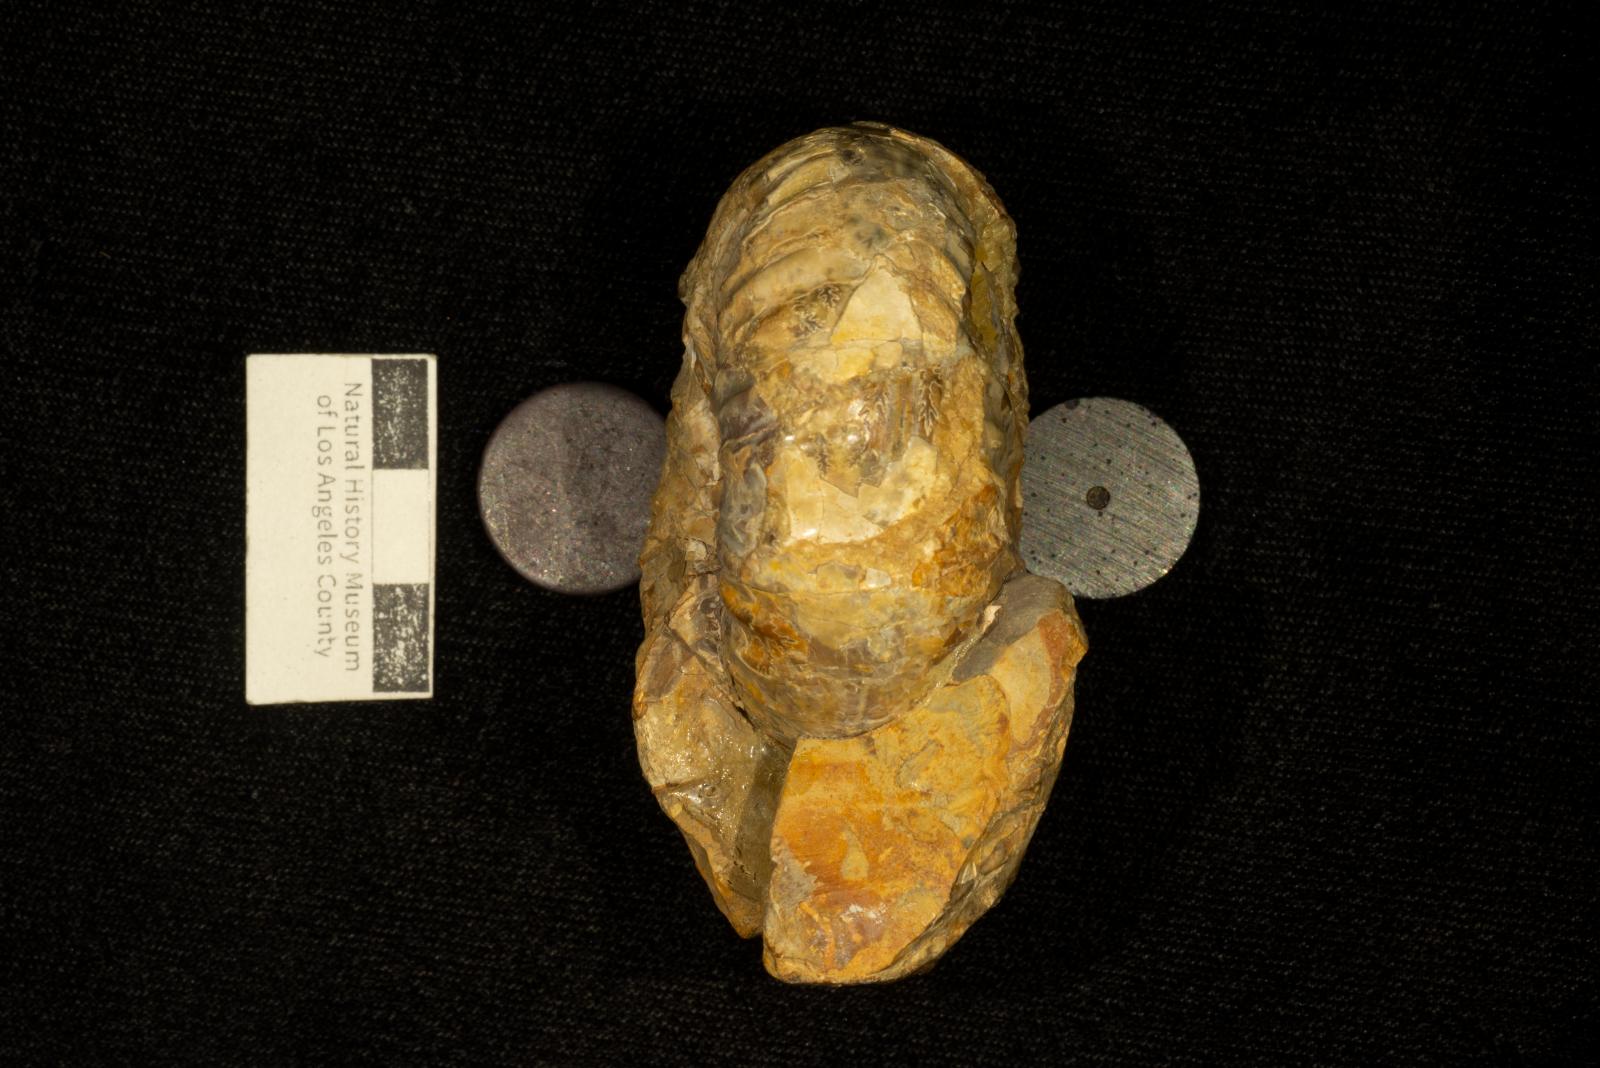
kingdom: Animalia
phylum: Mollusca
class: Cephalopoda
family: Pachydiscidae
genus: Eupachydiscus
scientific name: Eupachydiscus Pachydiscus teshioensis
